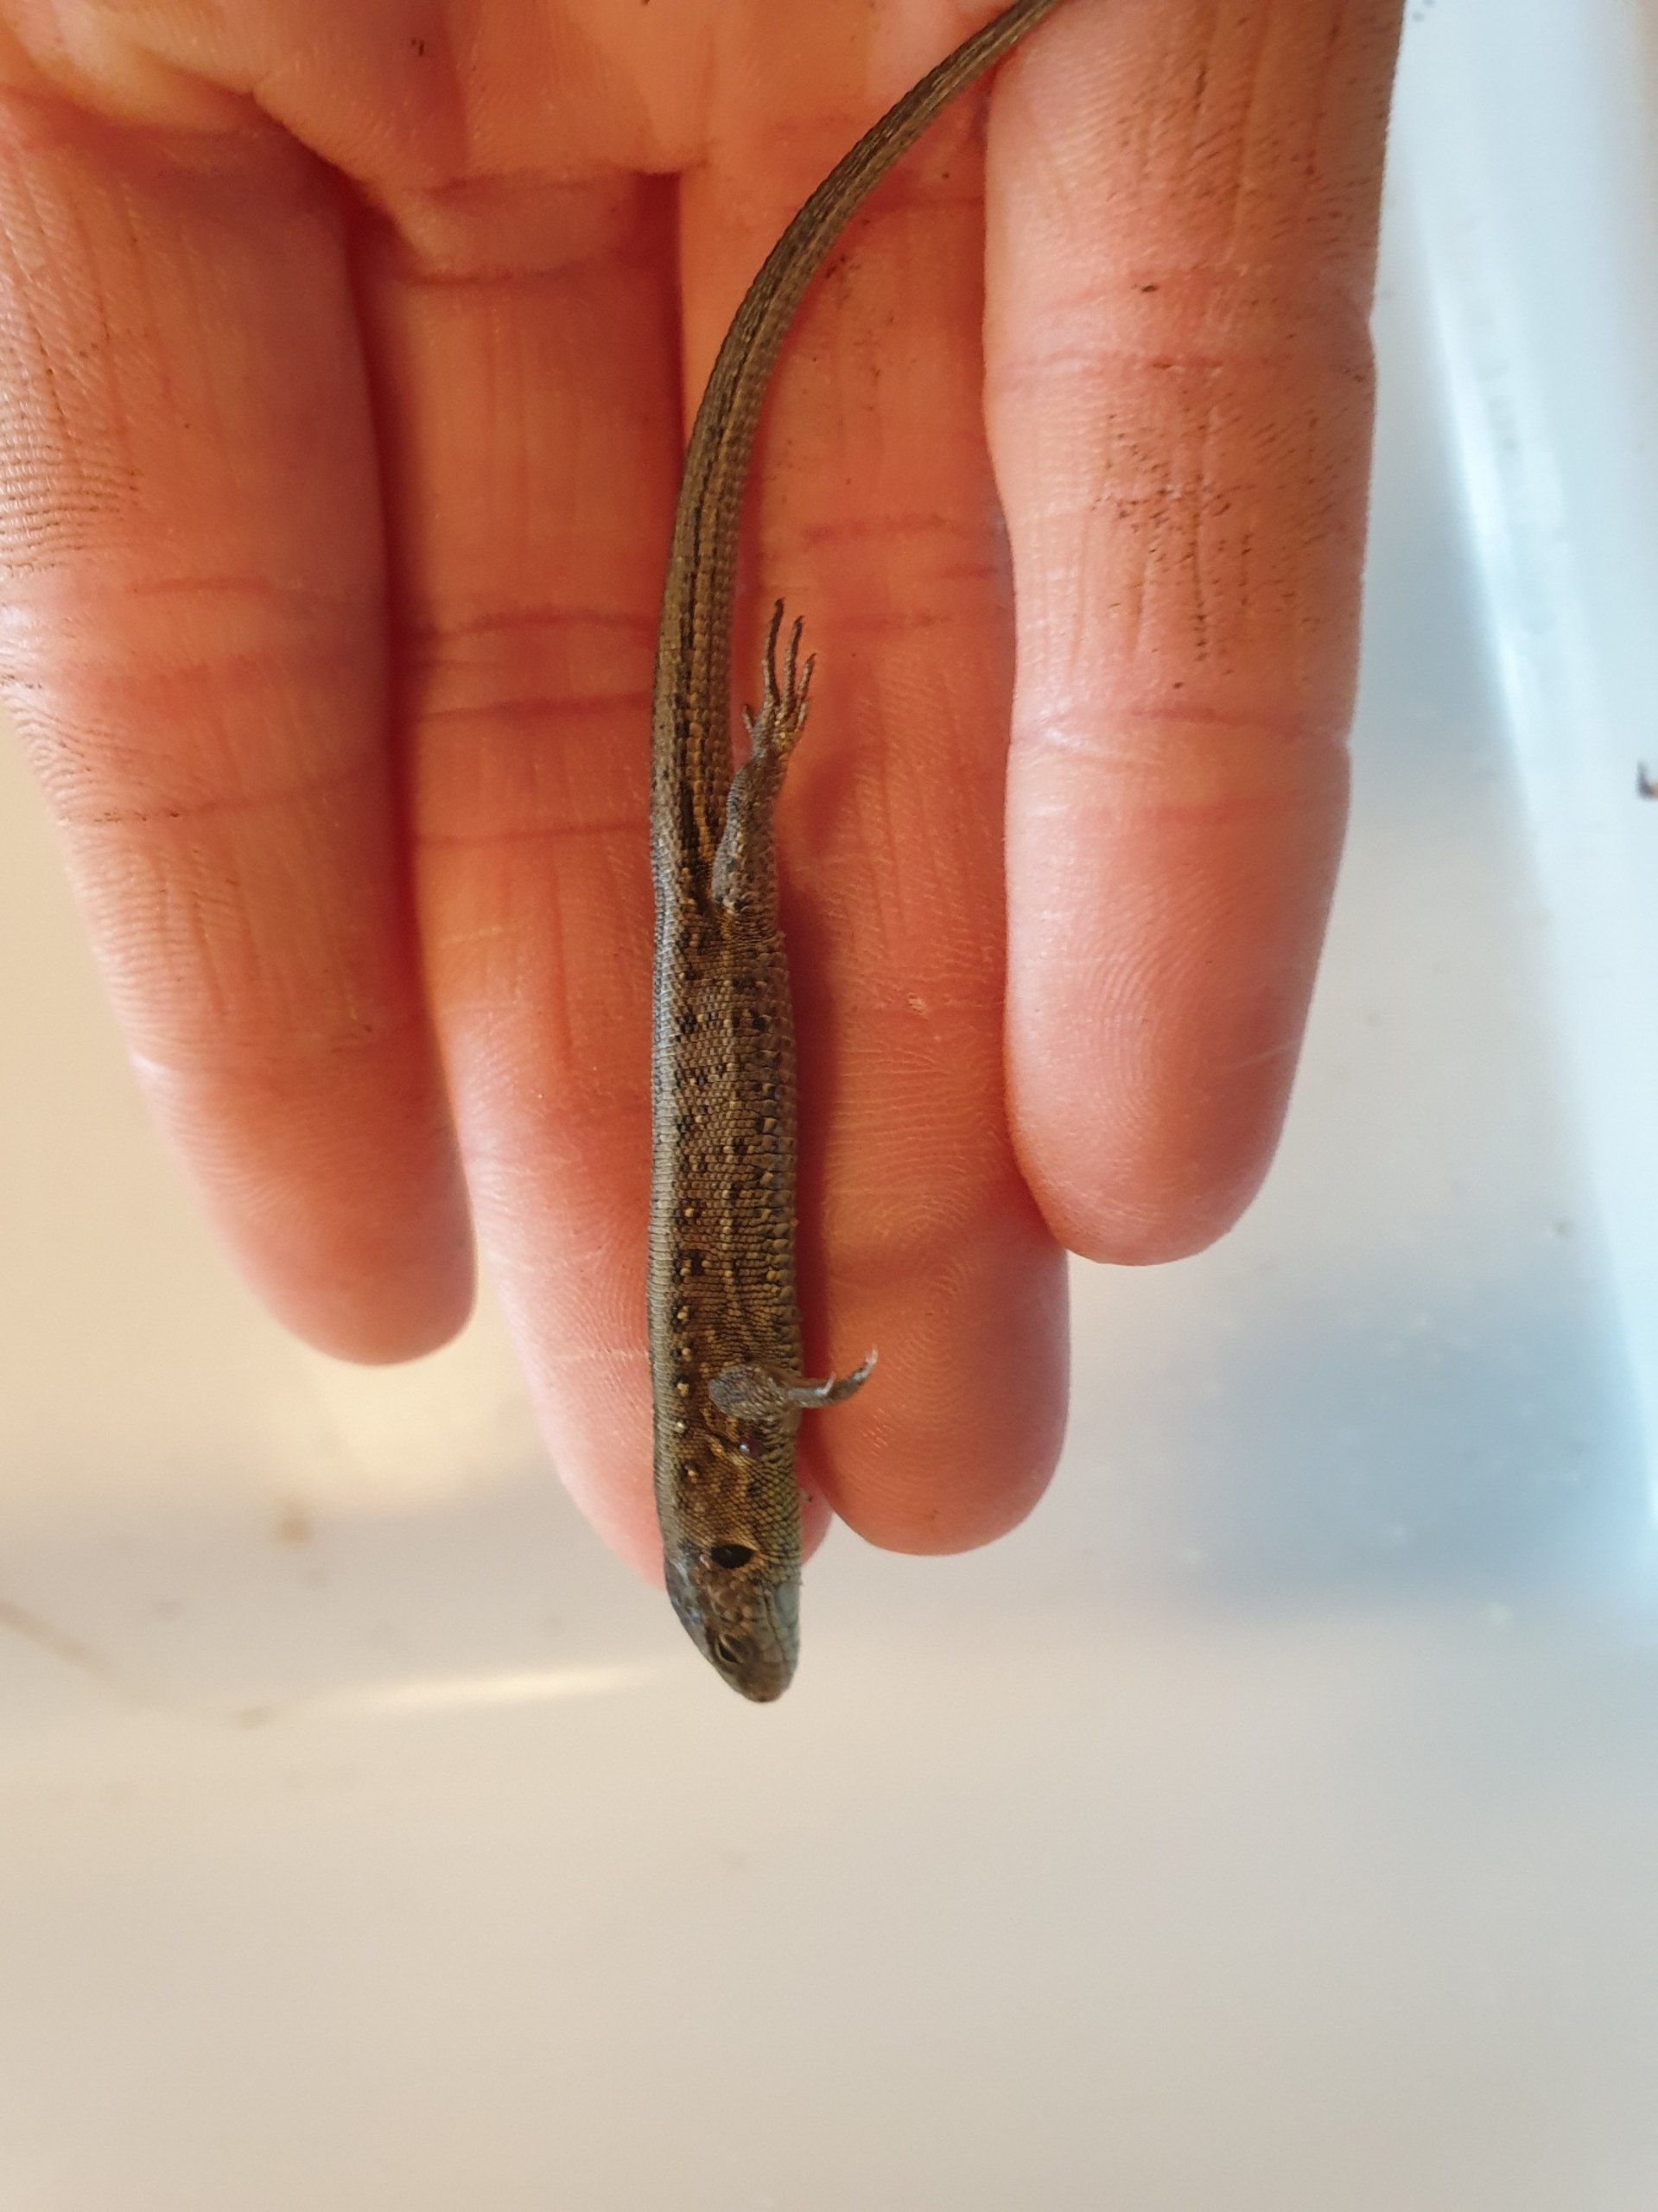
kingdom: Animalia
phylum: Chordata
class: Squamata
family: Lacertidae
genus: Lacerta
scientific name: Lacerta agilis
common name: Markfirben
